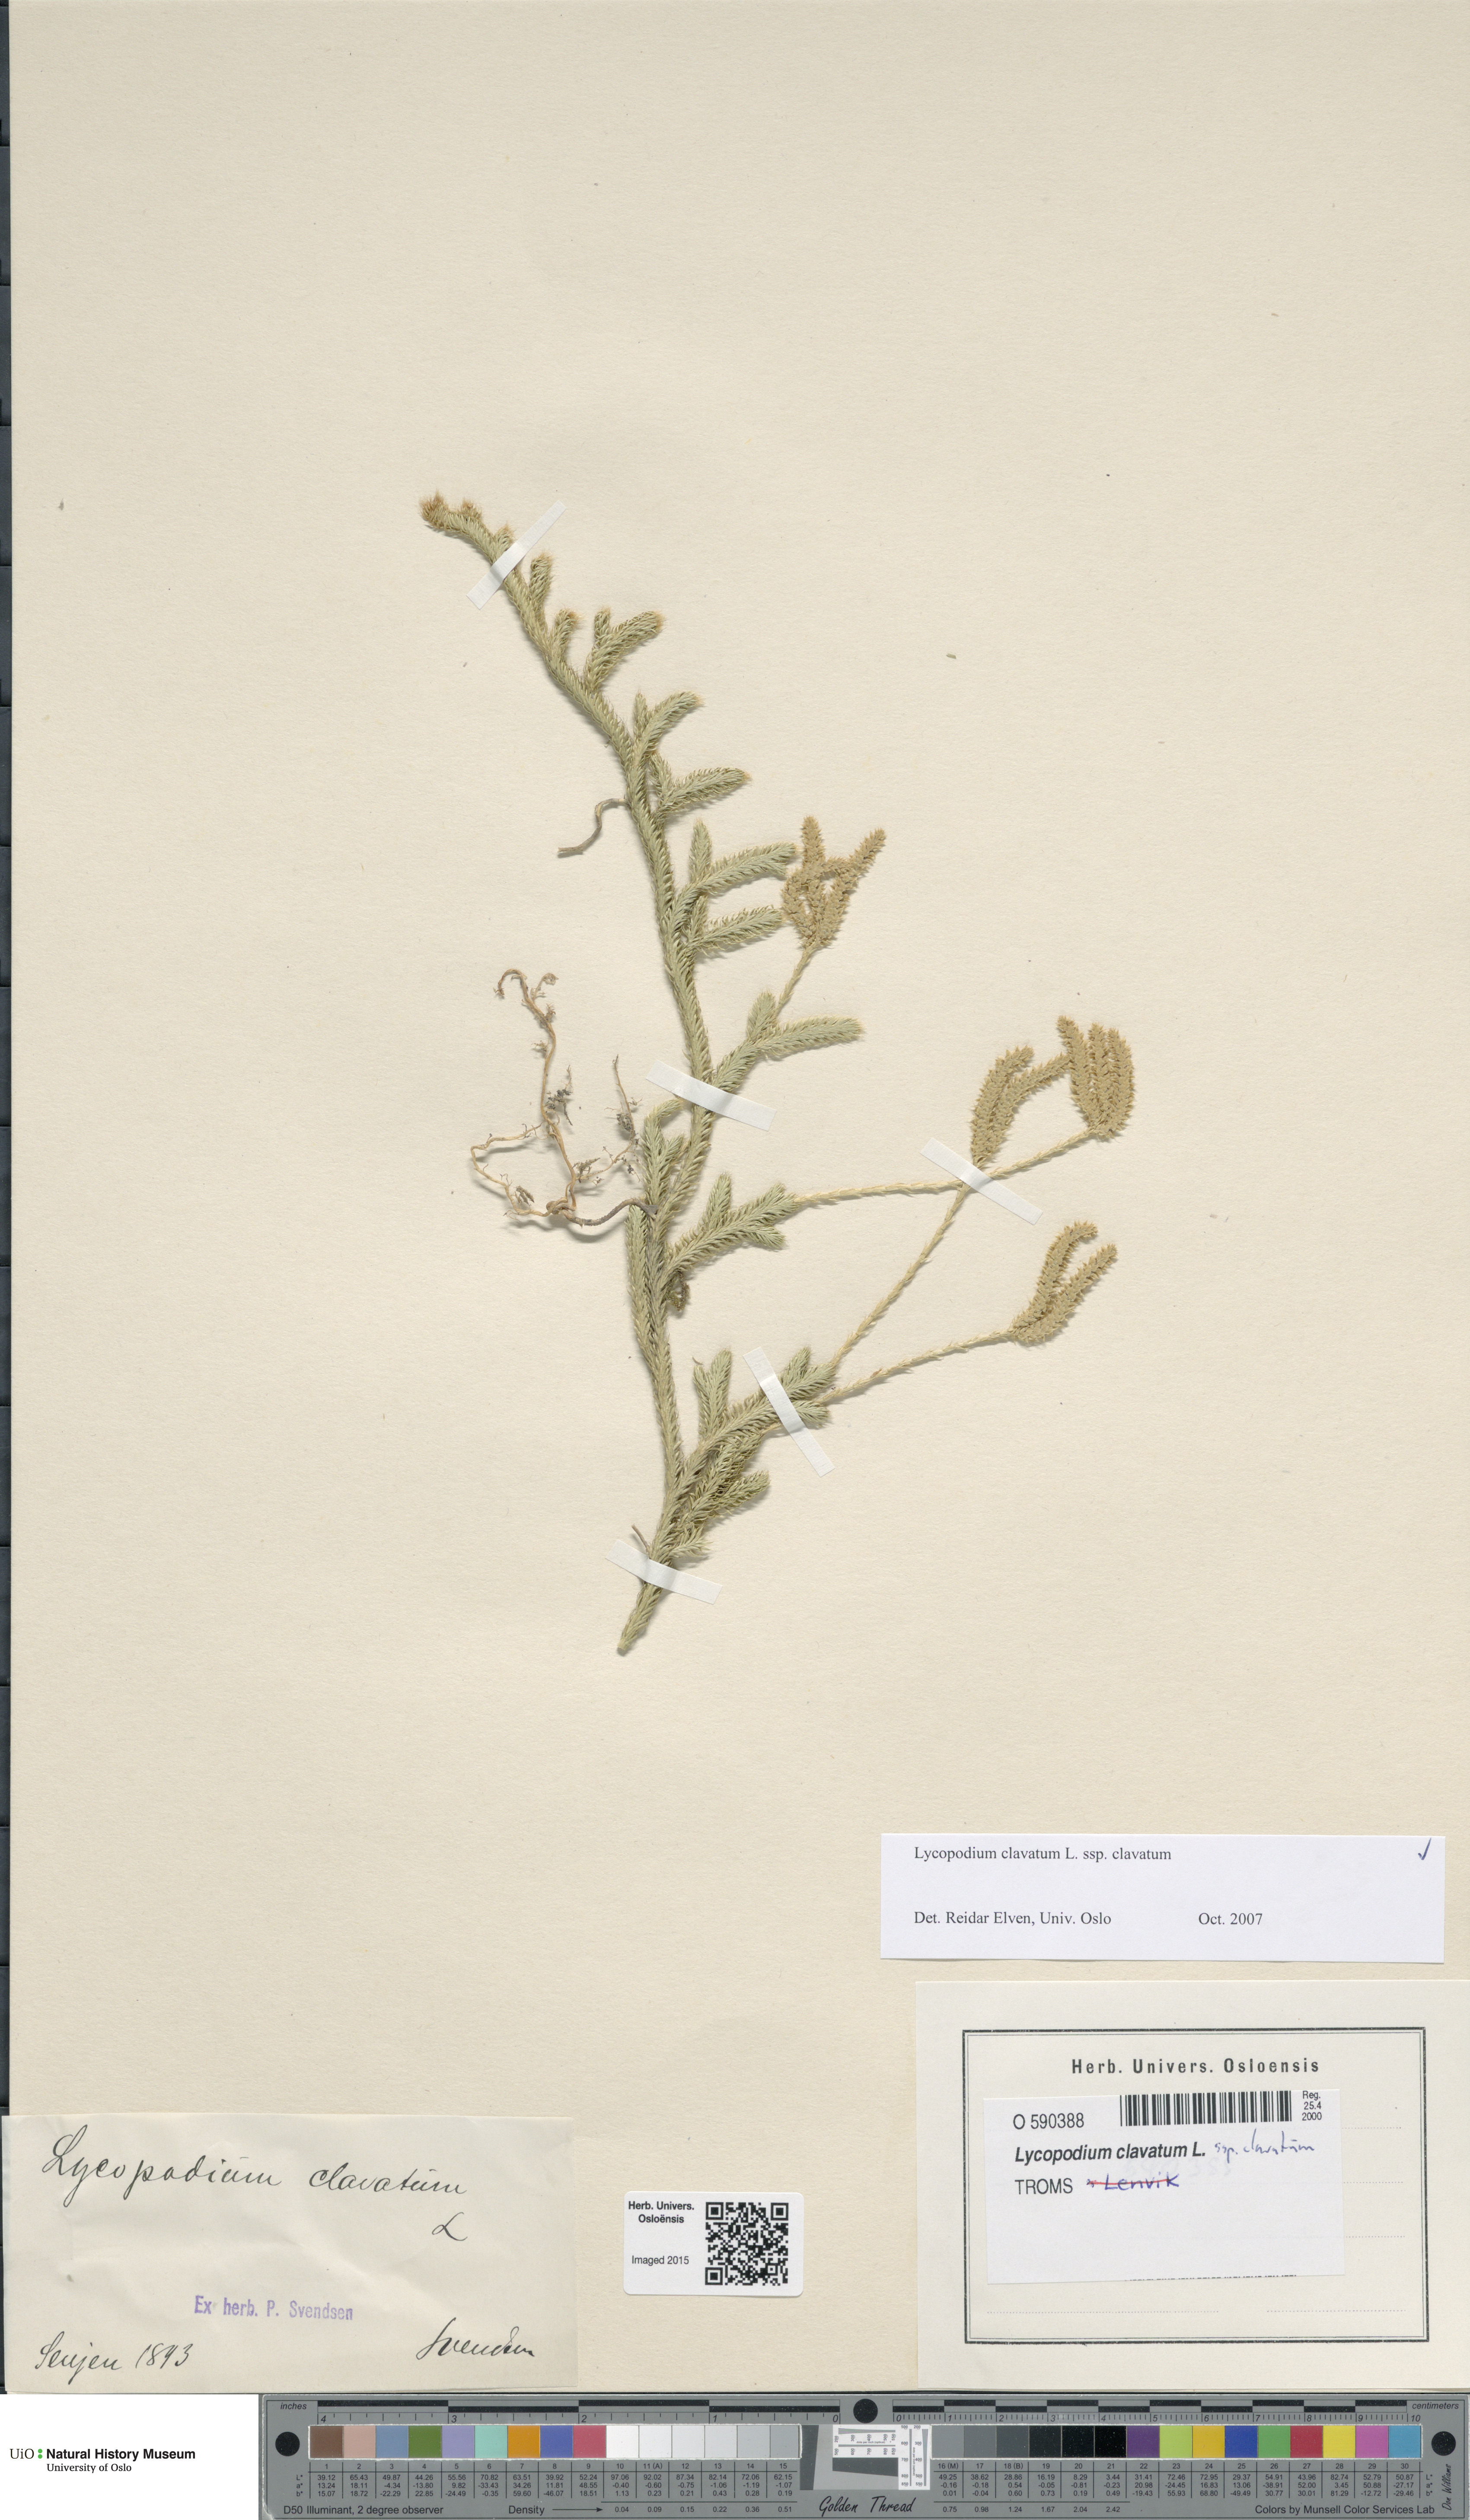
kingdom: Plantae
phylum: Tracheophyta
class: Lycopodiopsida
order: Lycopodiales
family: Lycopodiaceae
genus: Lycopodium
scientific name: Lycopodium clavatum
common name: Stag's-horn clubmoss
